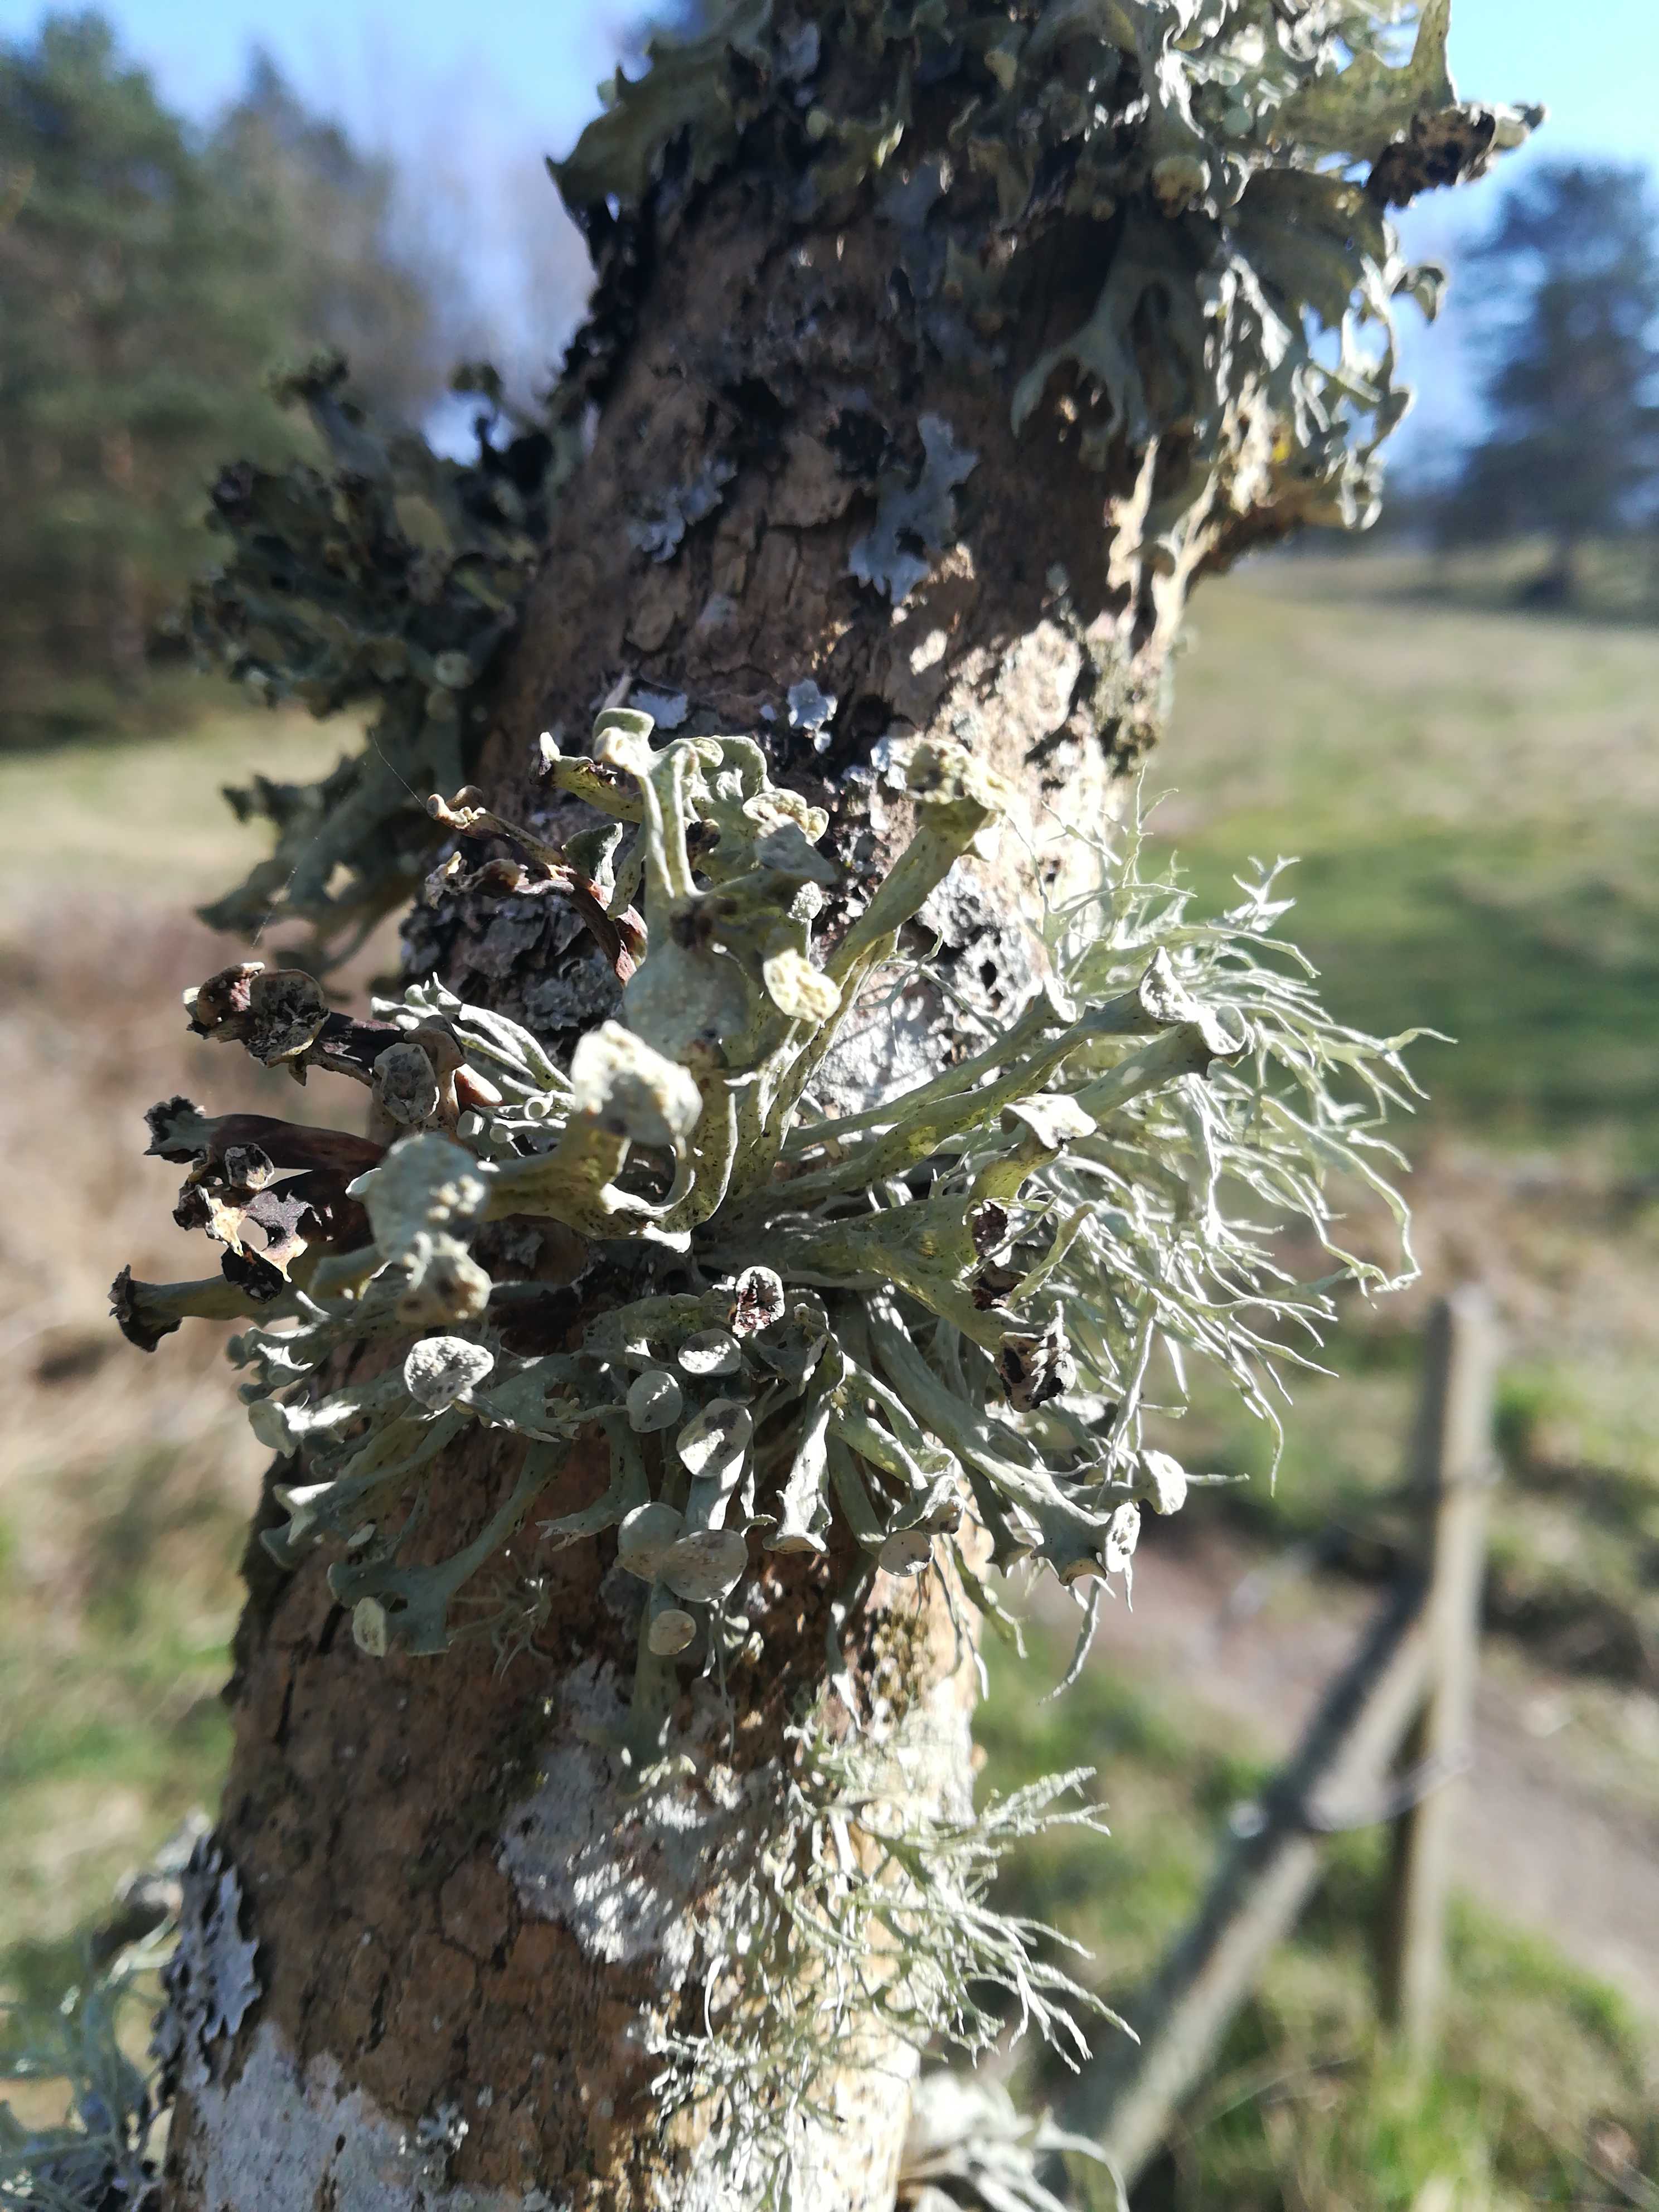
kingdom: Fungi
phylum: Ascomycota
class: Lecanoromycetes
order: Lecanorales
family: Ramalinaceae
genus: Ramalina
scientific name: Ramalina fastigiata
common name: tue-grenlav
